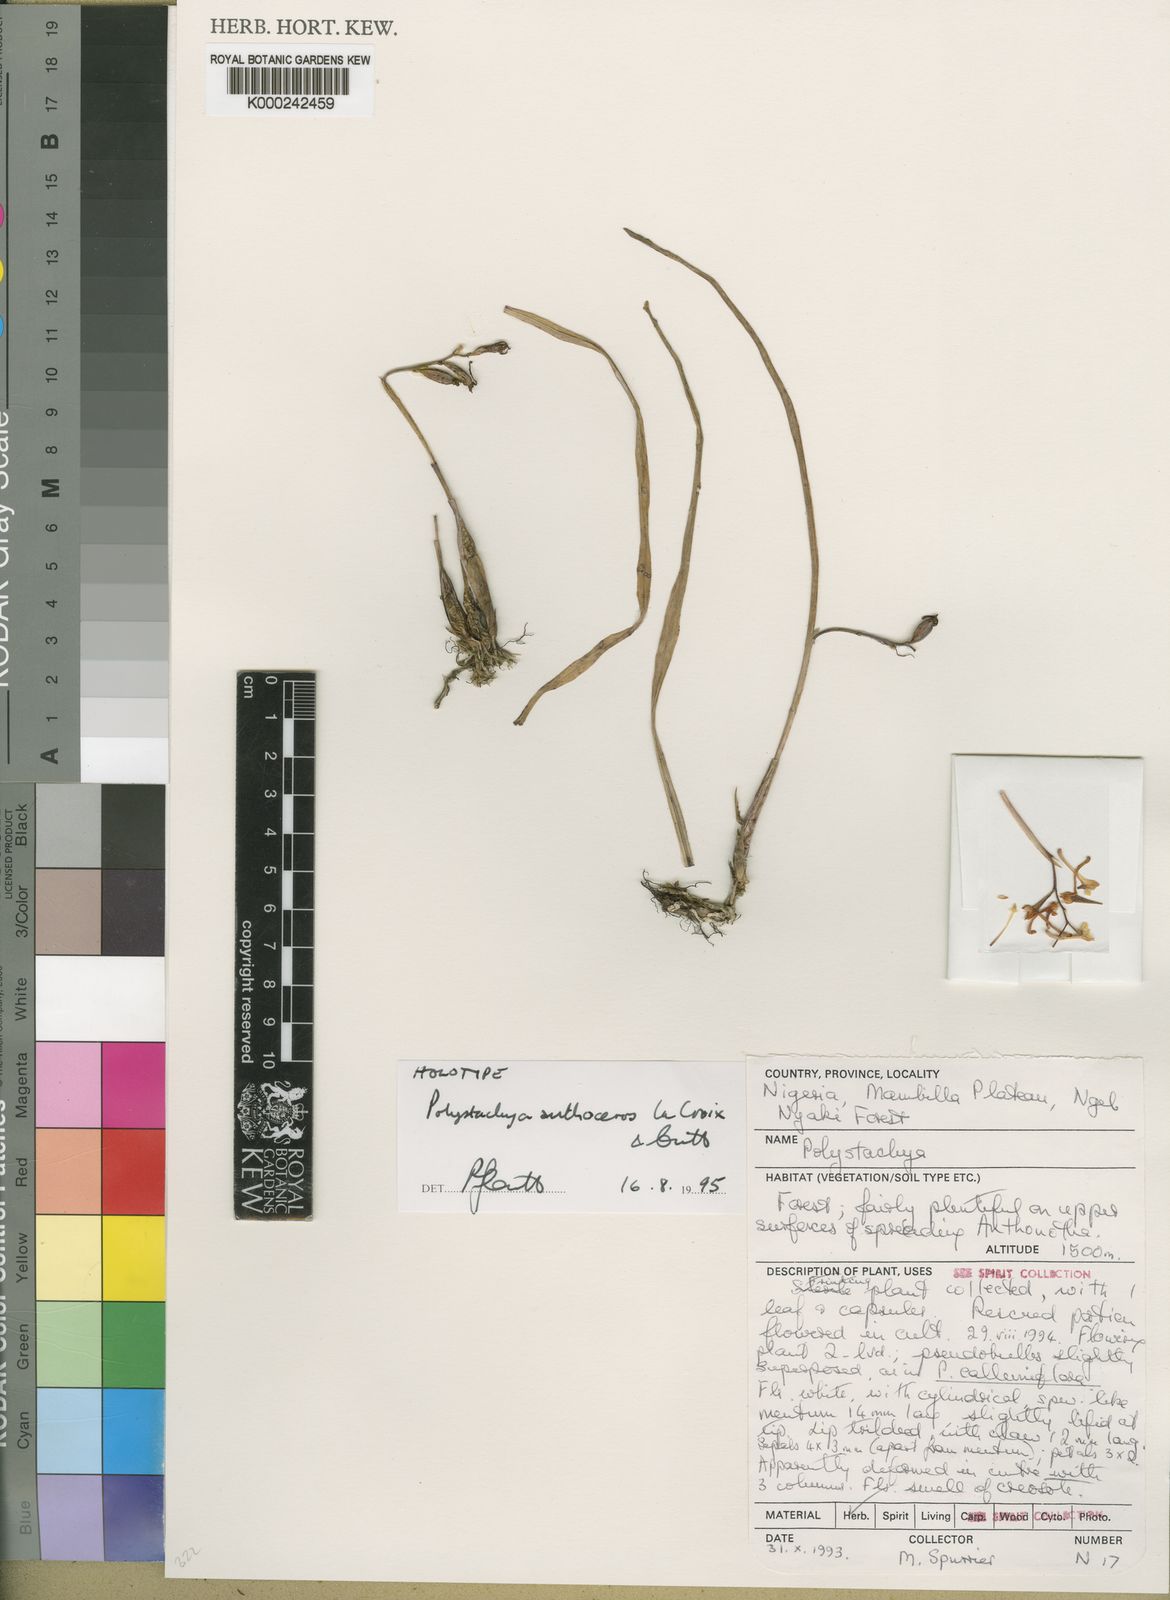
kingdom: Plantae
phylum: Tracheophyta
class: Liliopsida
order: Asparagales
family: Orchidaceae
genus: Polystachya
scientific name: Polystachya anthoceros
